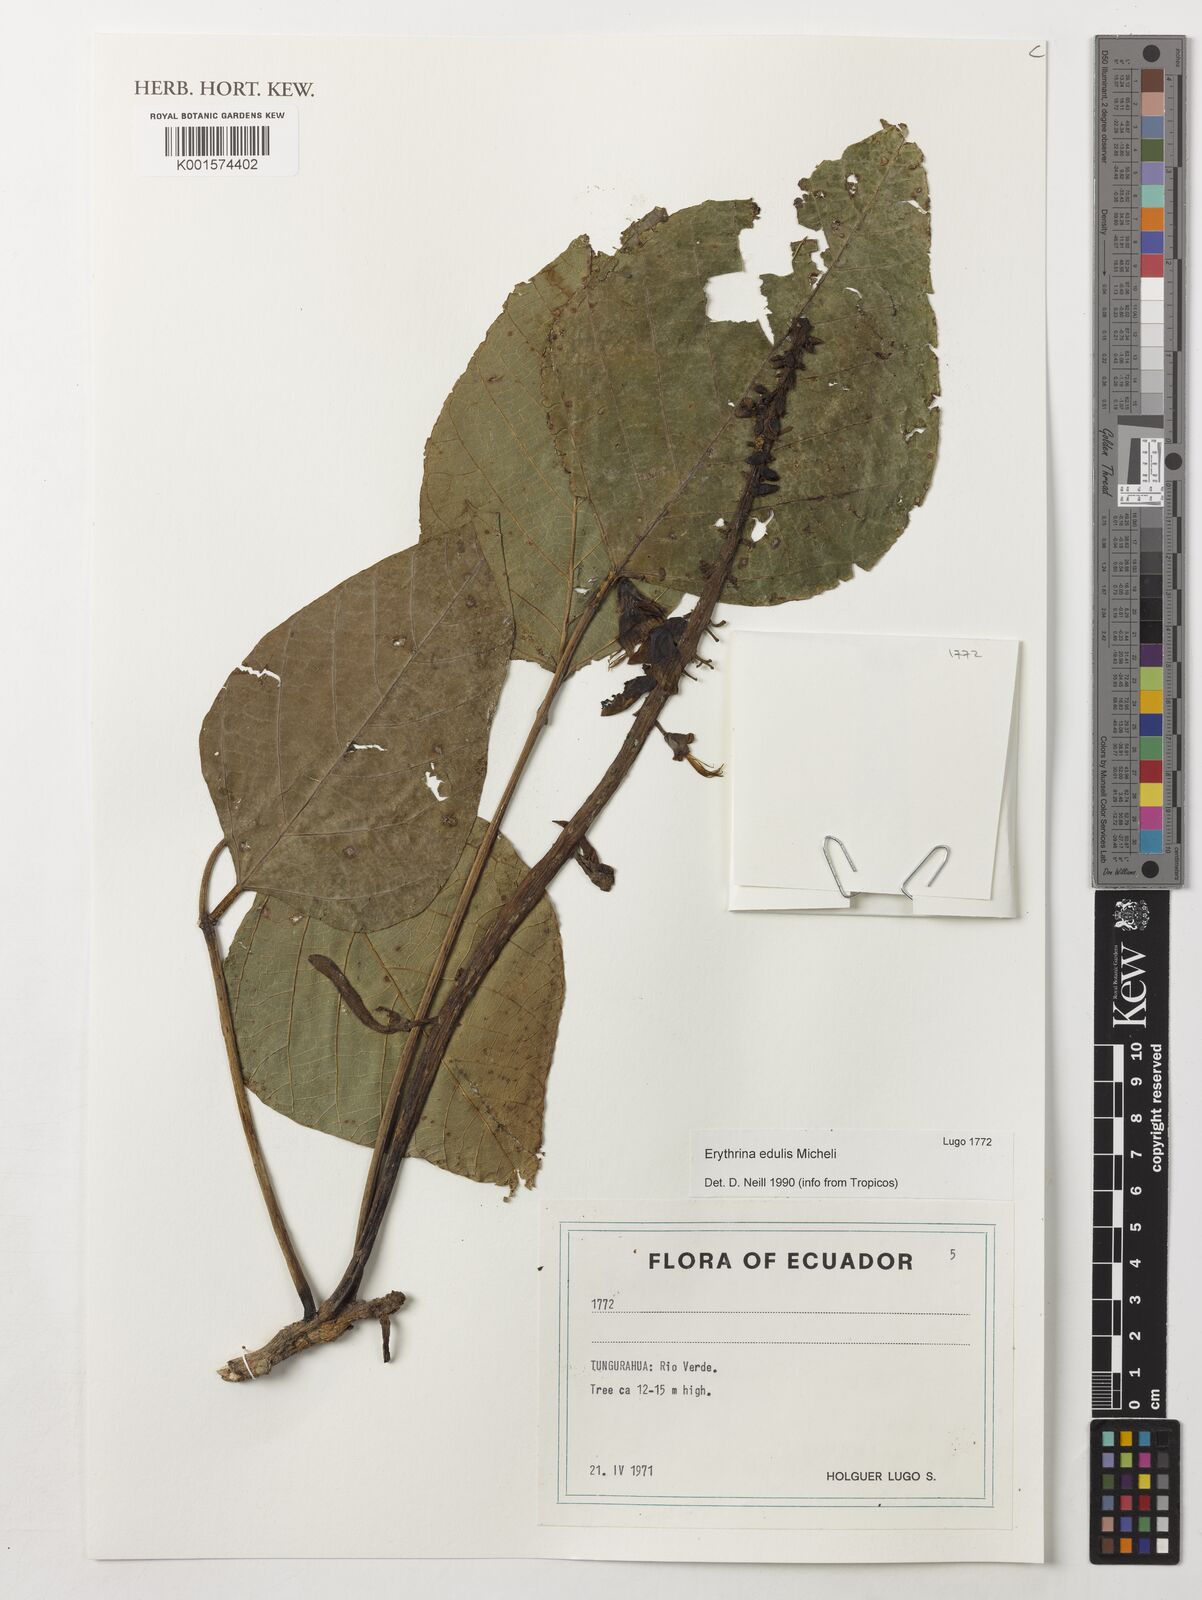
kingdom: Plantae
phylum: Tracheophyta
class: Magnoliopsida
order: Fabales
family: Fabaceae
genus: Erythrina
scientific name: Erythrina edulis
